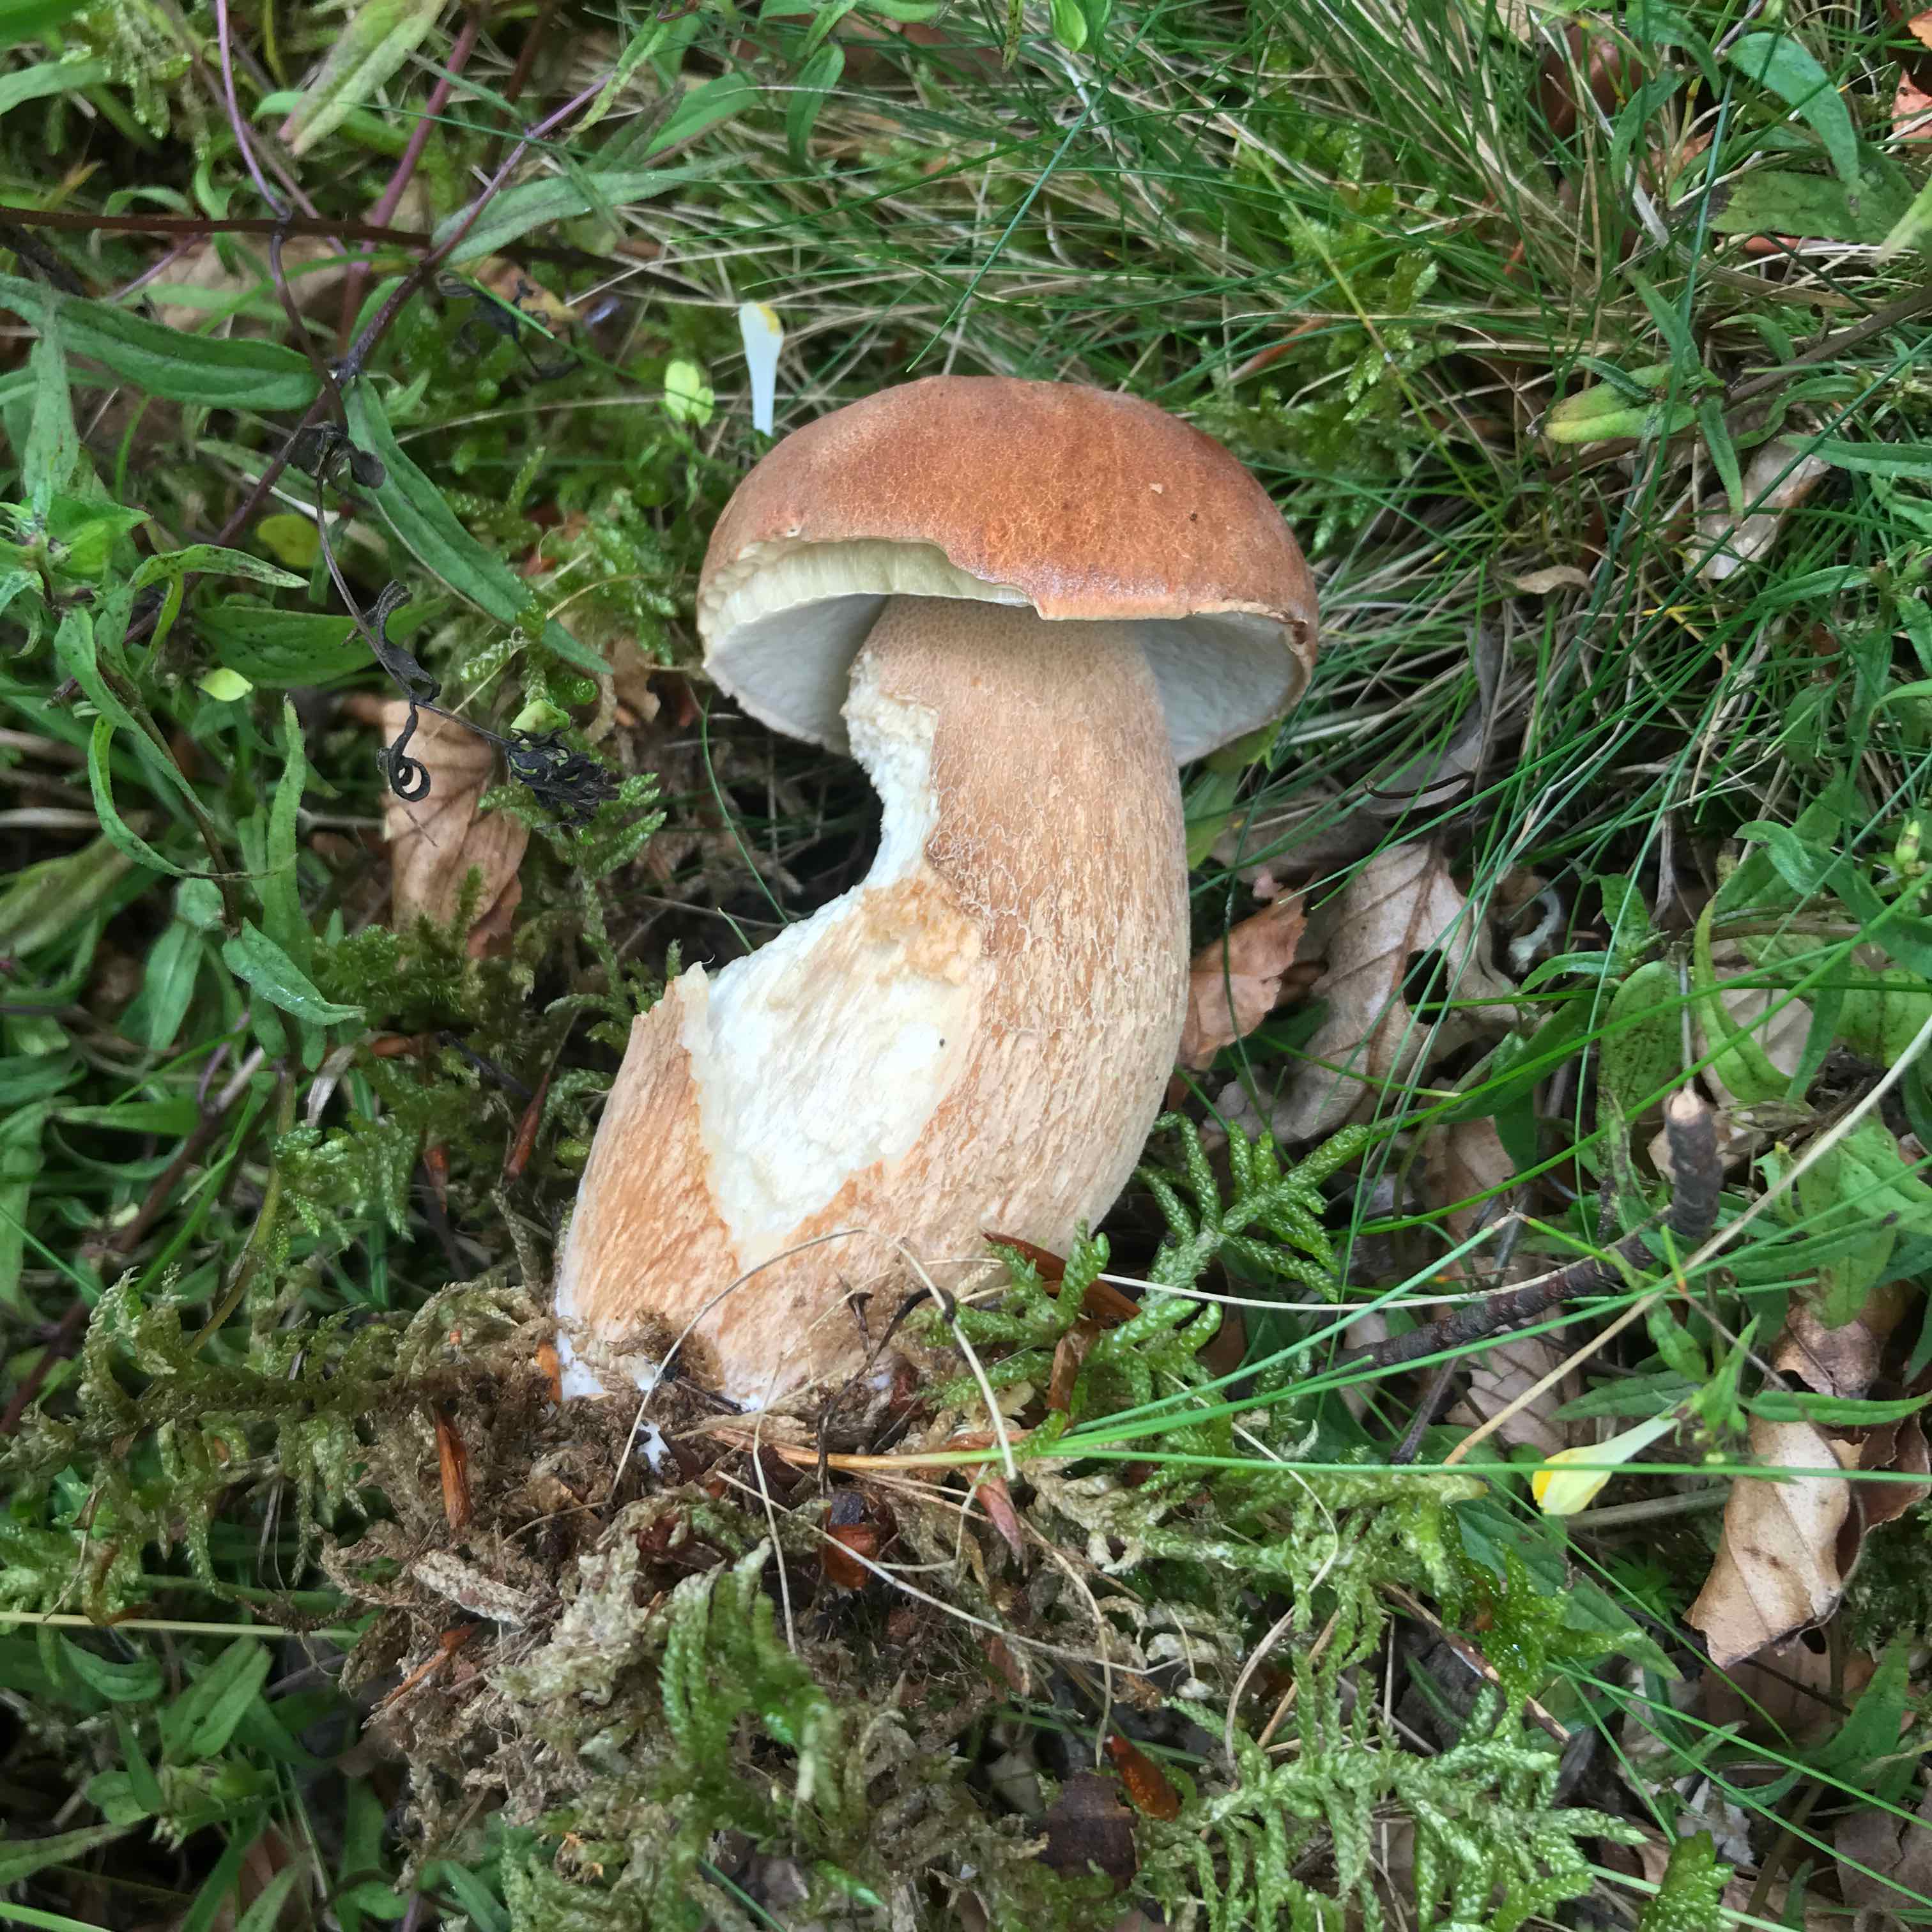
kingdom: Fungi
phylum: Basidiomycota
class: Agaricomycetes
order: Boletales
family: Boletaceae
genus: Boletus
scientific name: Boletus edulis
